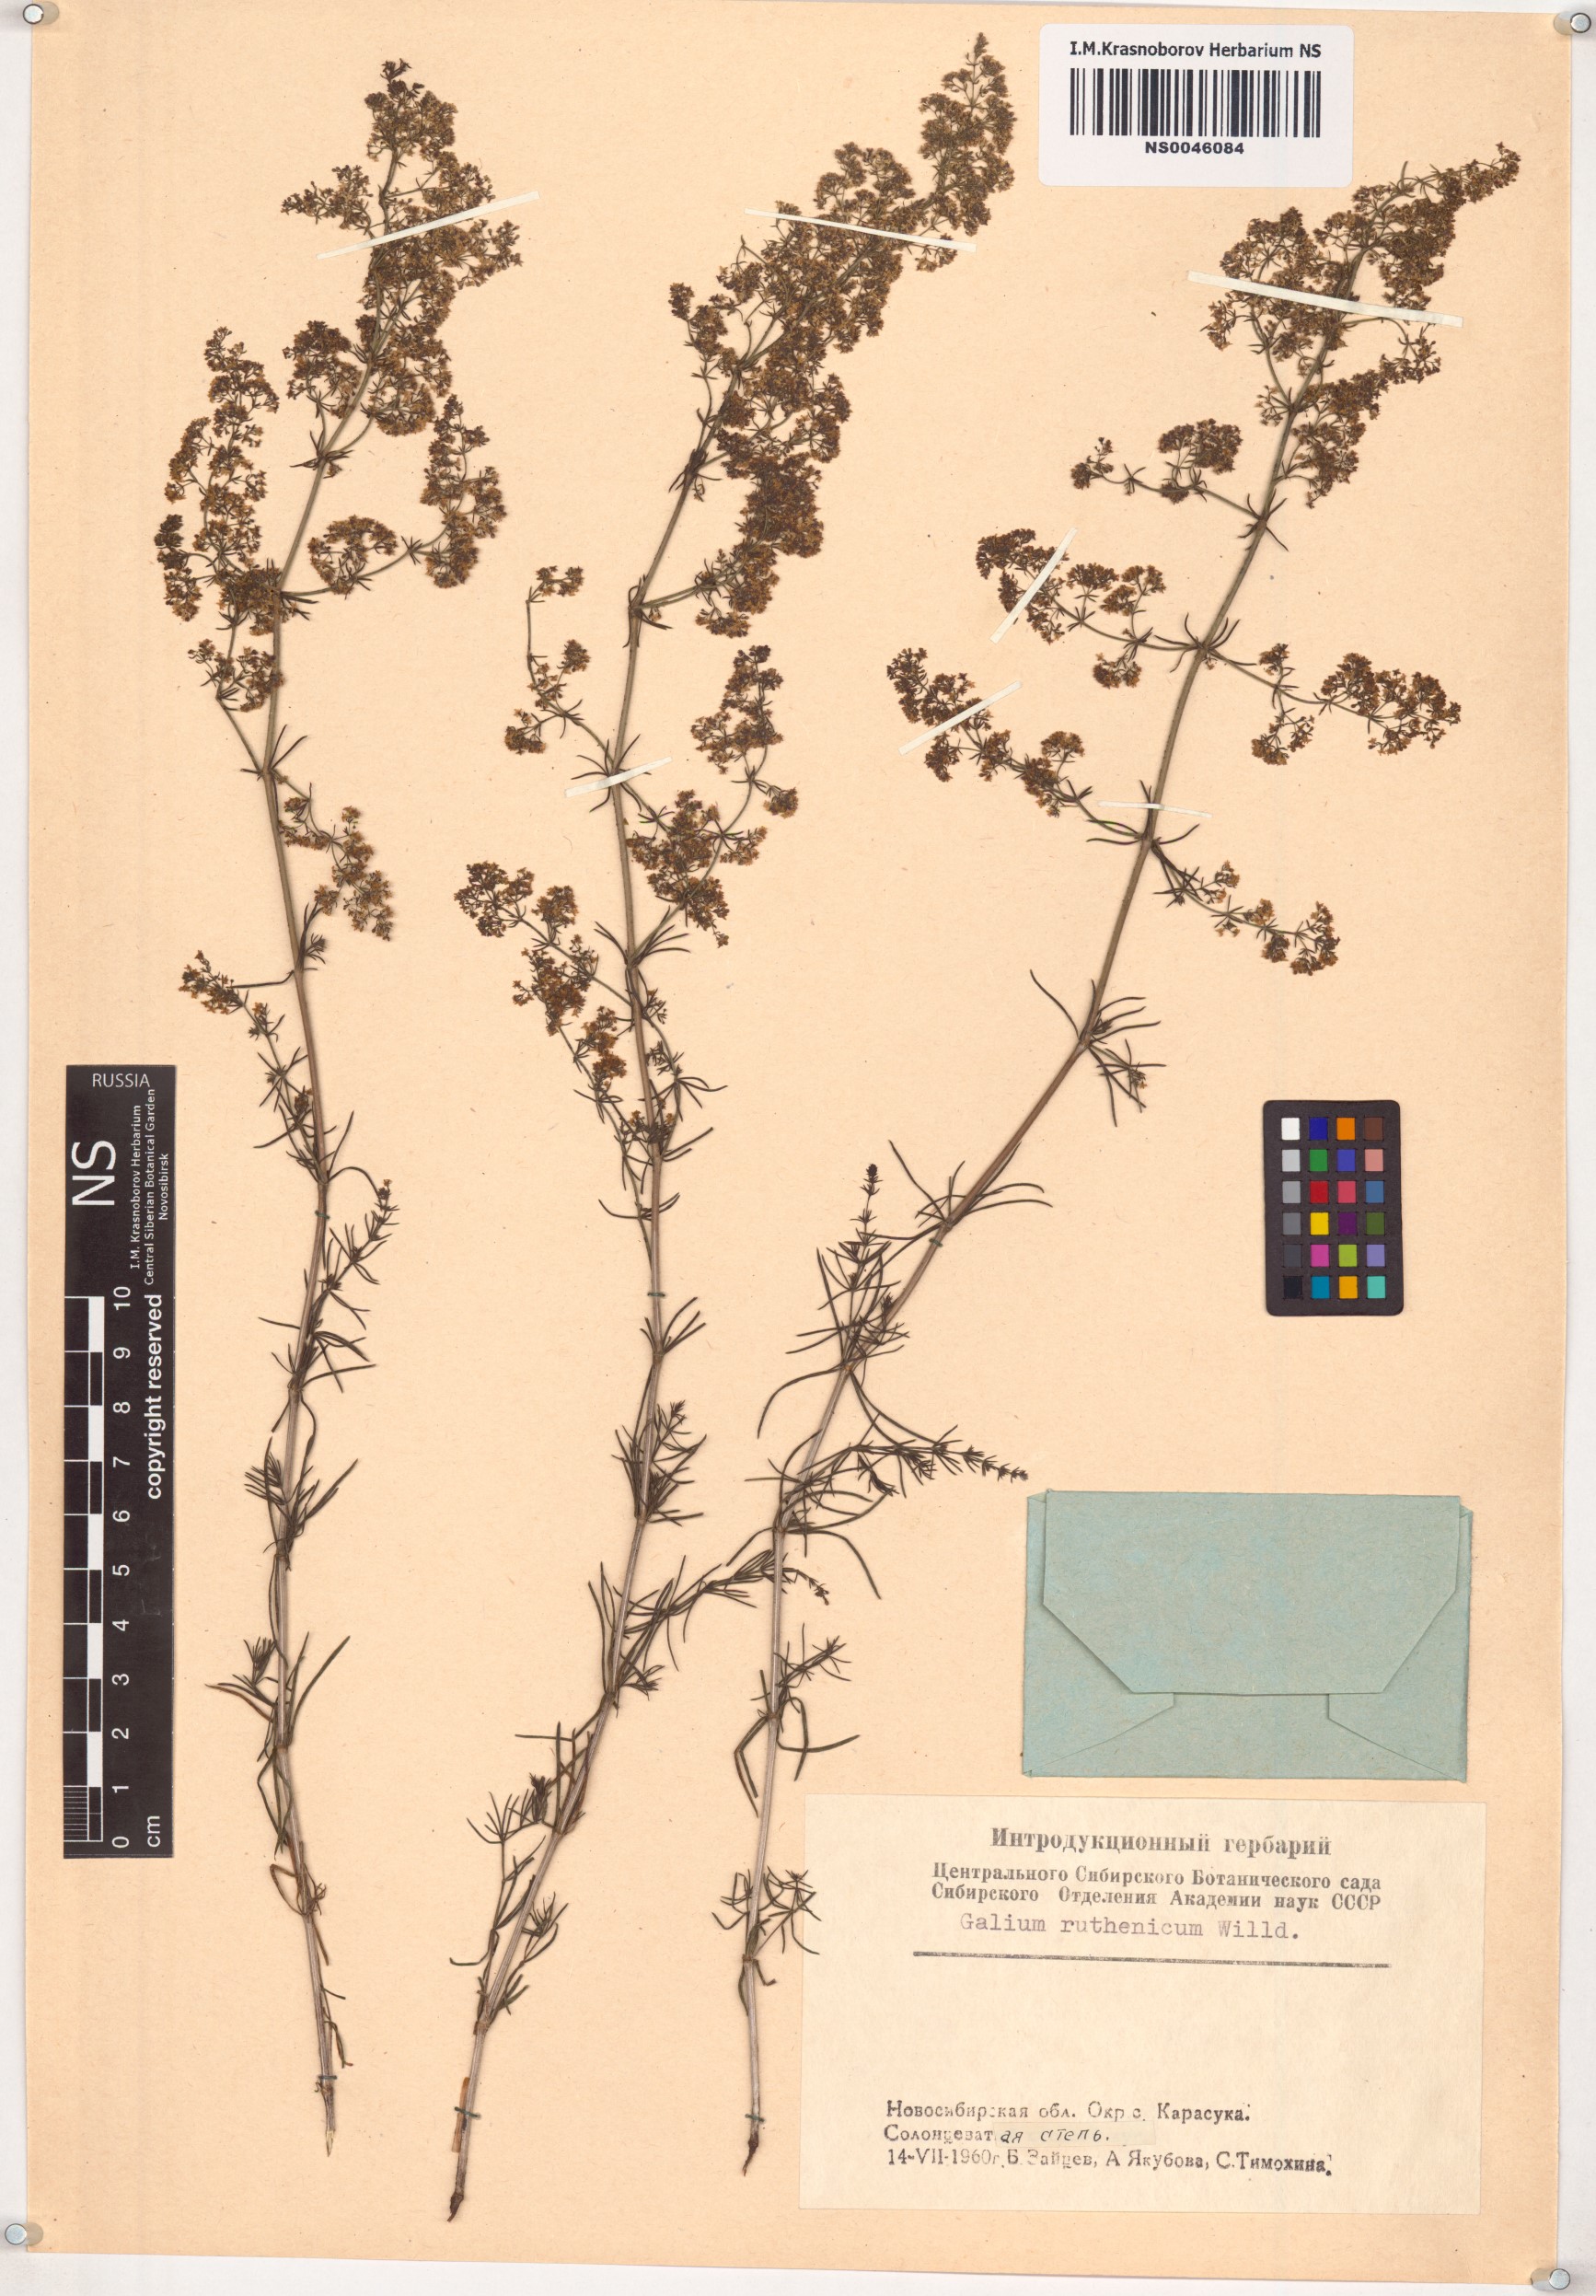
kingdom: Plantae
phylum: Tracheophyta
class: Magnoliopsida
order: Gentianales
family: Rubiaceae
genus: Galium
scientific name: Galium verum
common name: Lady's bedstraw
